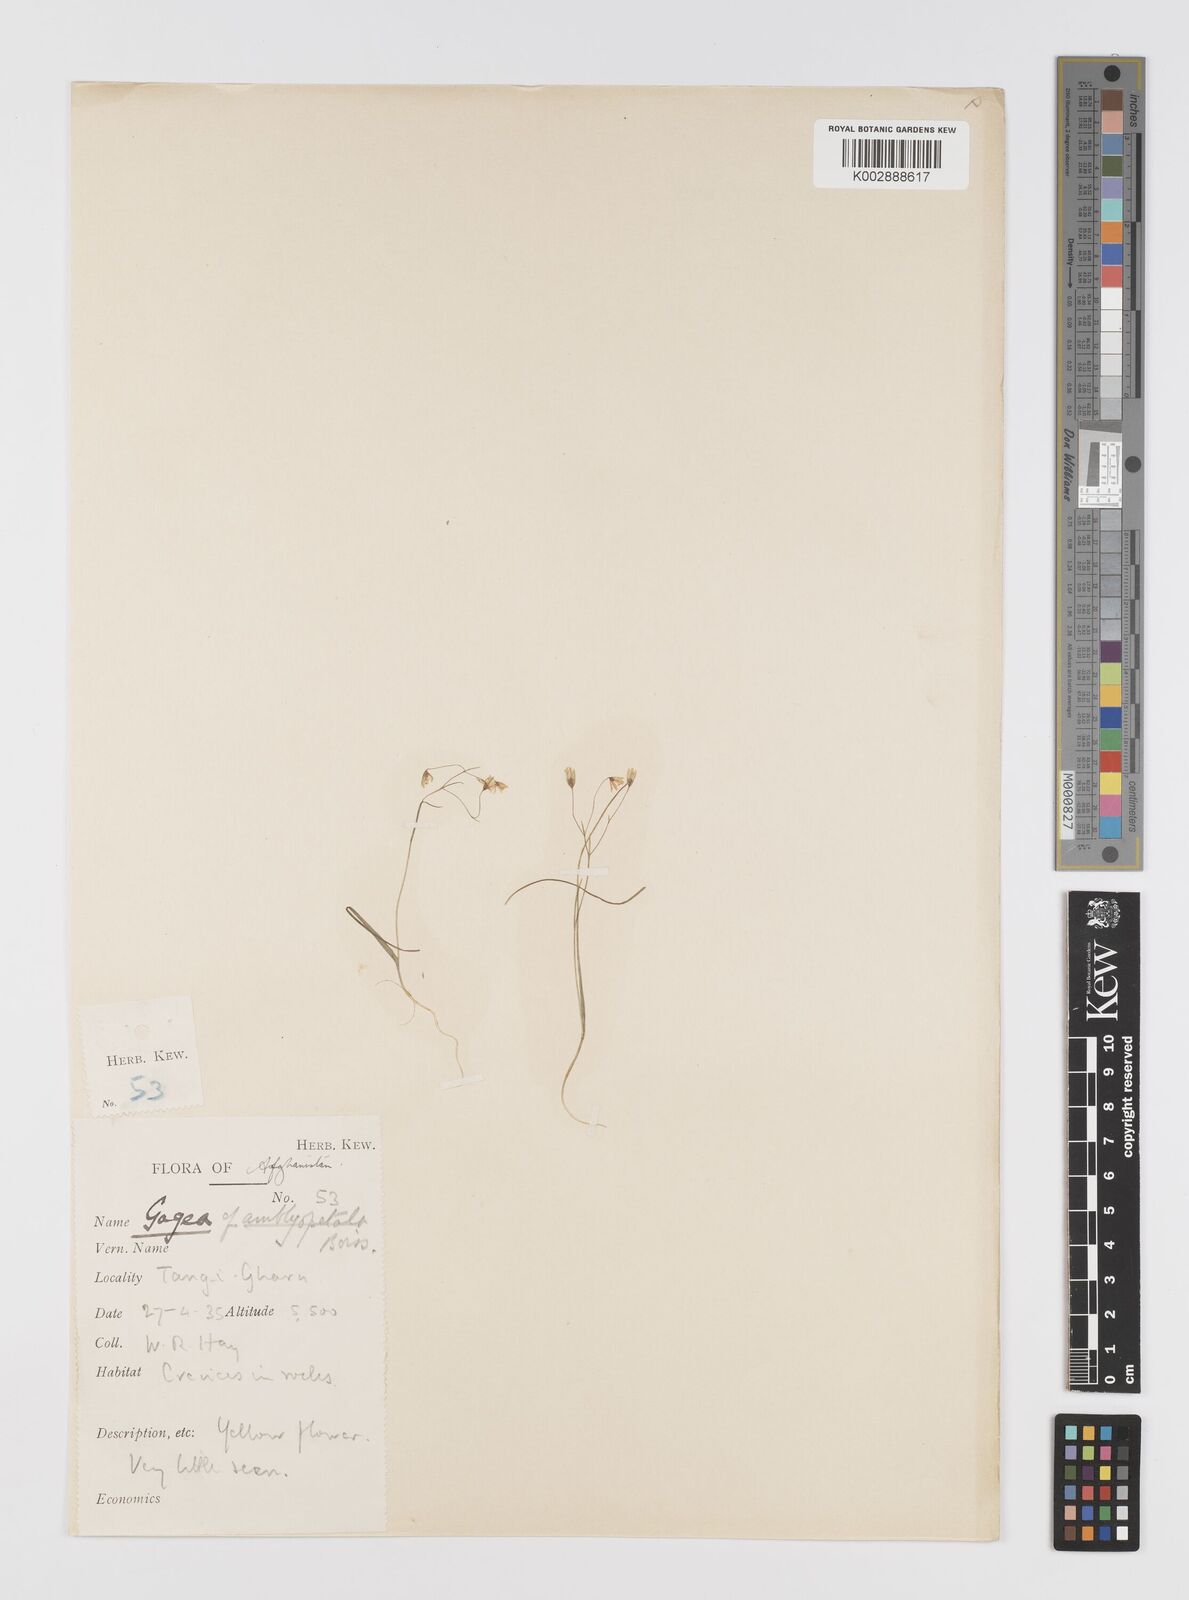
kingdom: Plantae
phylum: Tracheophyta
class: Liliopsida
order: Liliales
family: Liliaceae
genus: Gagea
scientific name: Gagea olgae
